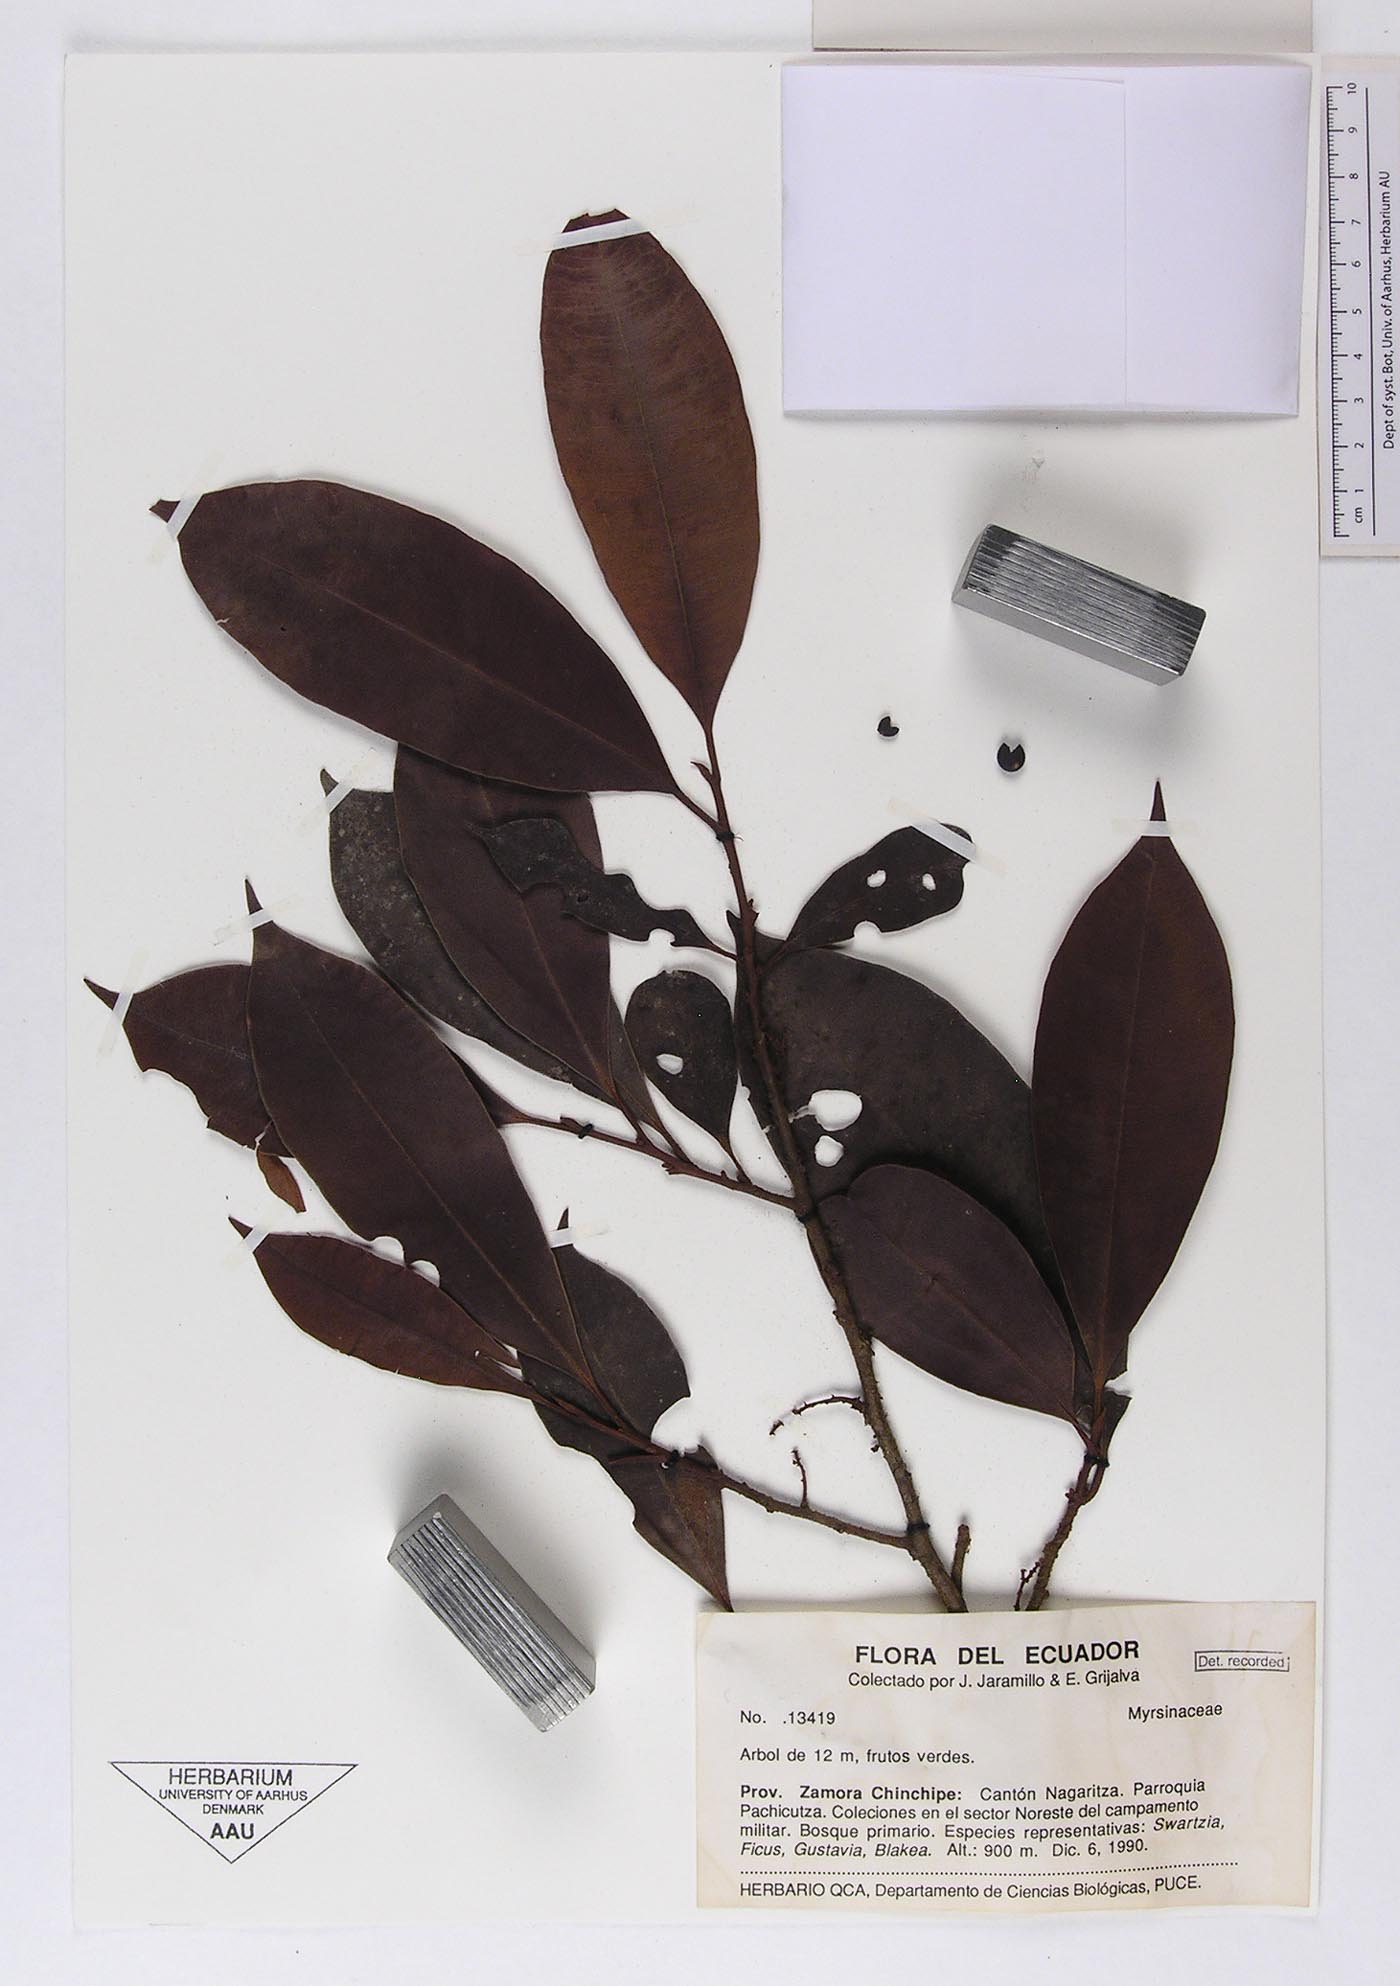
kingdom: Plantae
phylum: Tracheophyta
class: Magnoliopsida
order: Ericales
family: Primulaceae
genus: Cybianthus
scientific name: Cybianthus timanae
